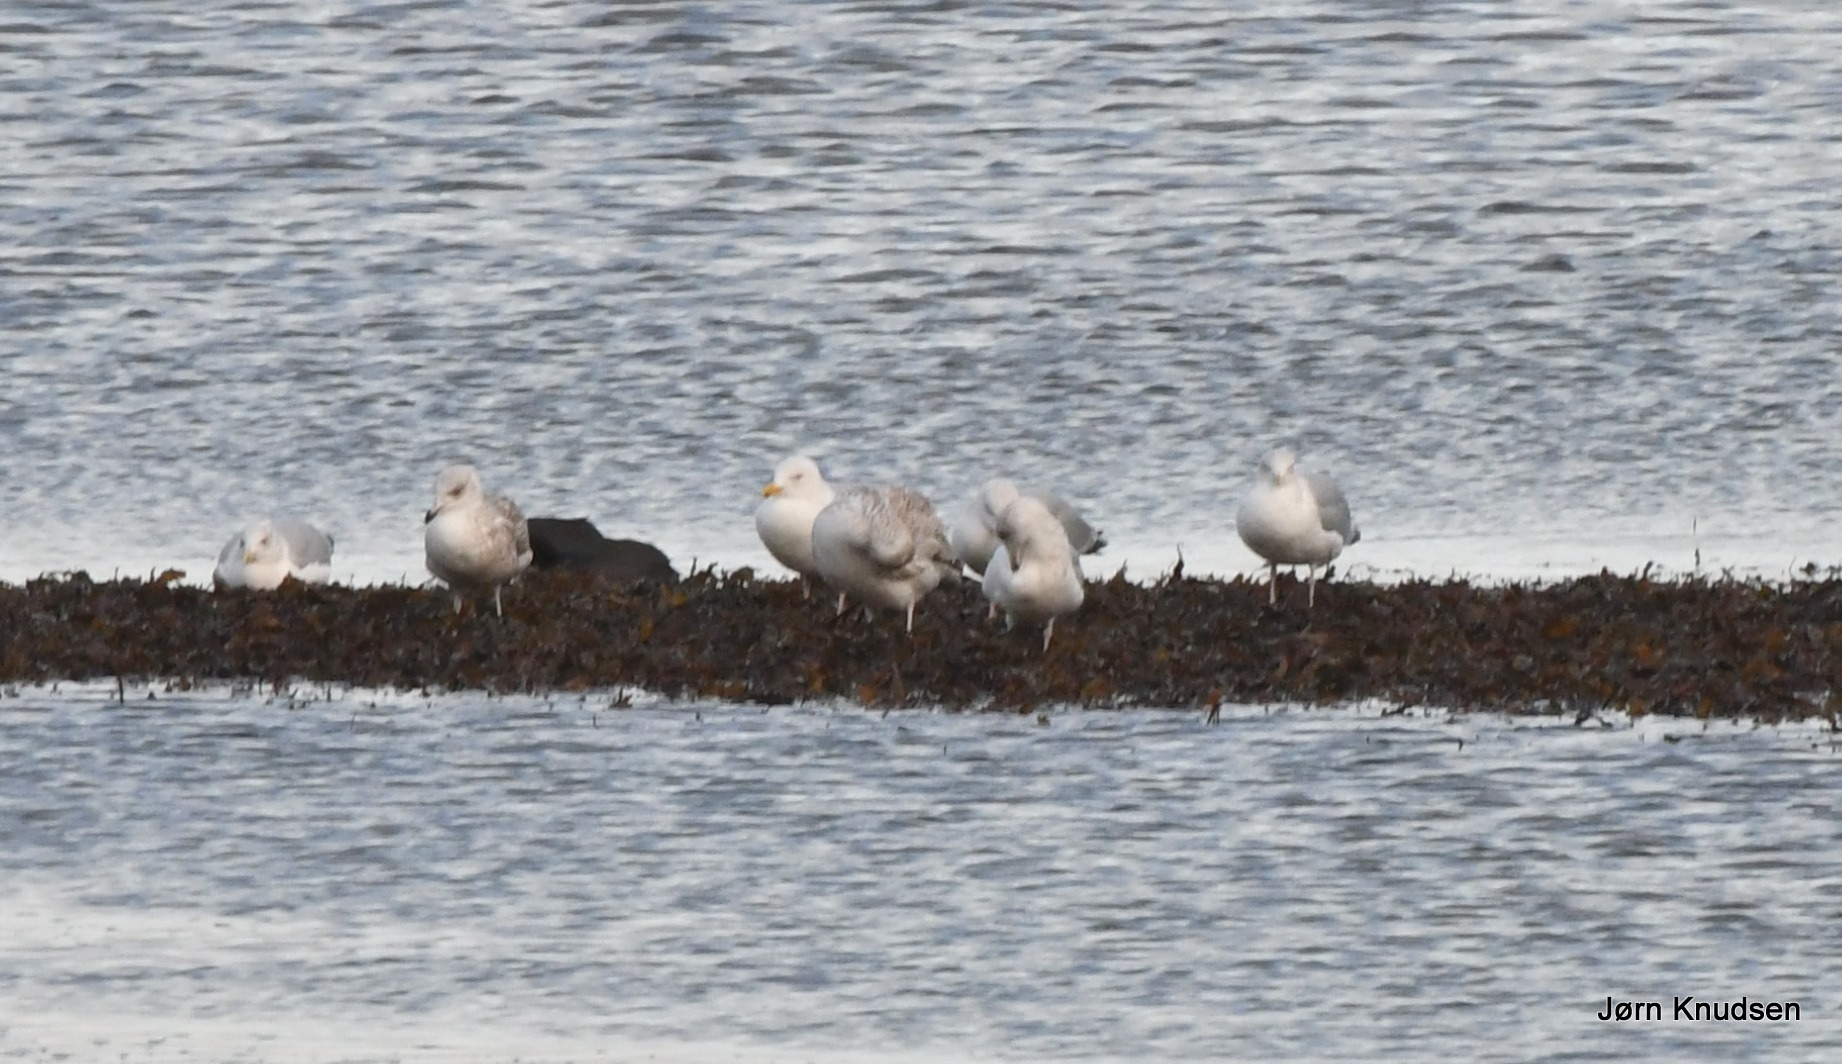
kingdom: Animalia
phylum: Chordata
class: Aves
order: Charadriiformes
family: Laridae
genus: Larus
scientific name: Larus argentatus
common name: Sølvmåge
